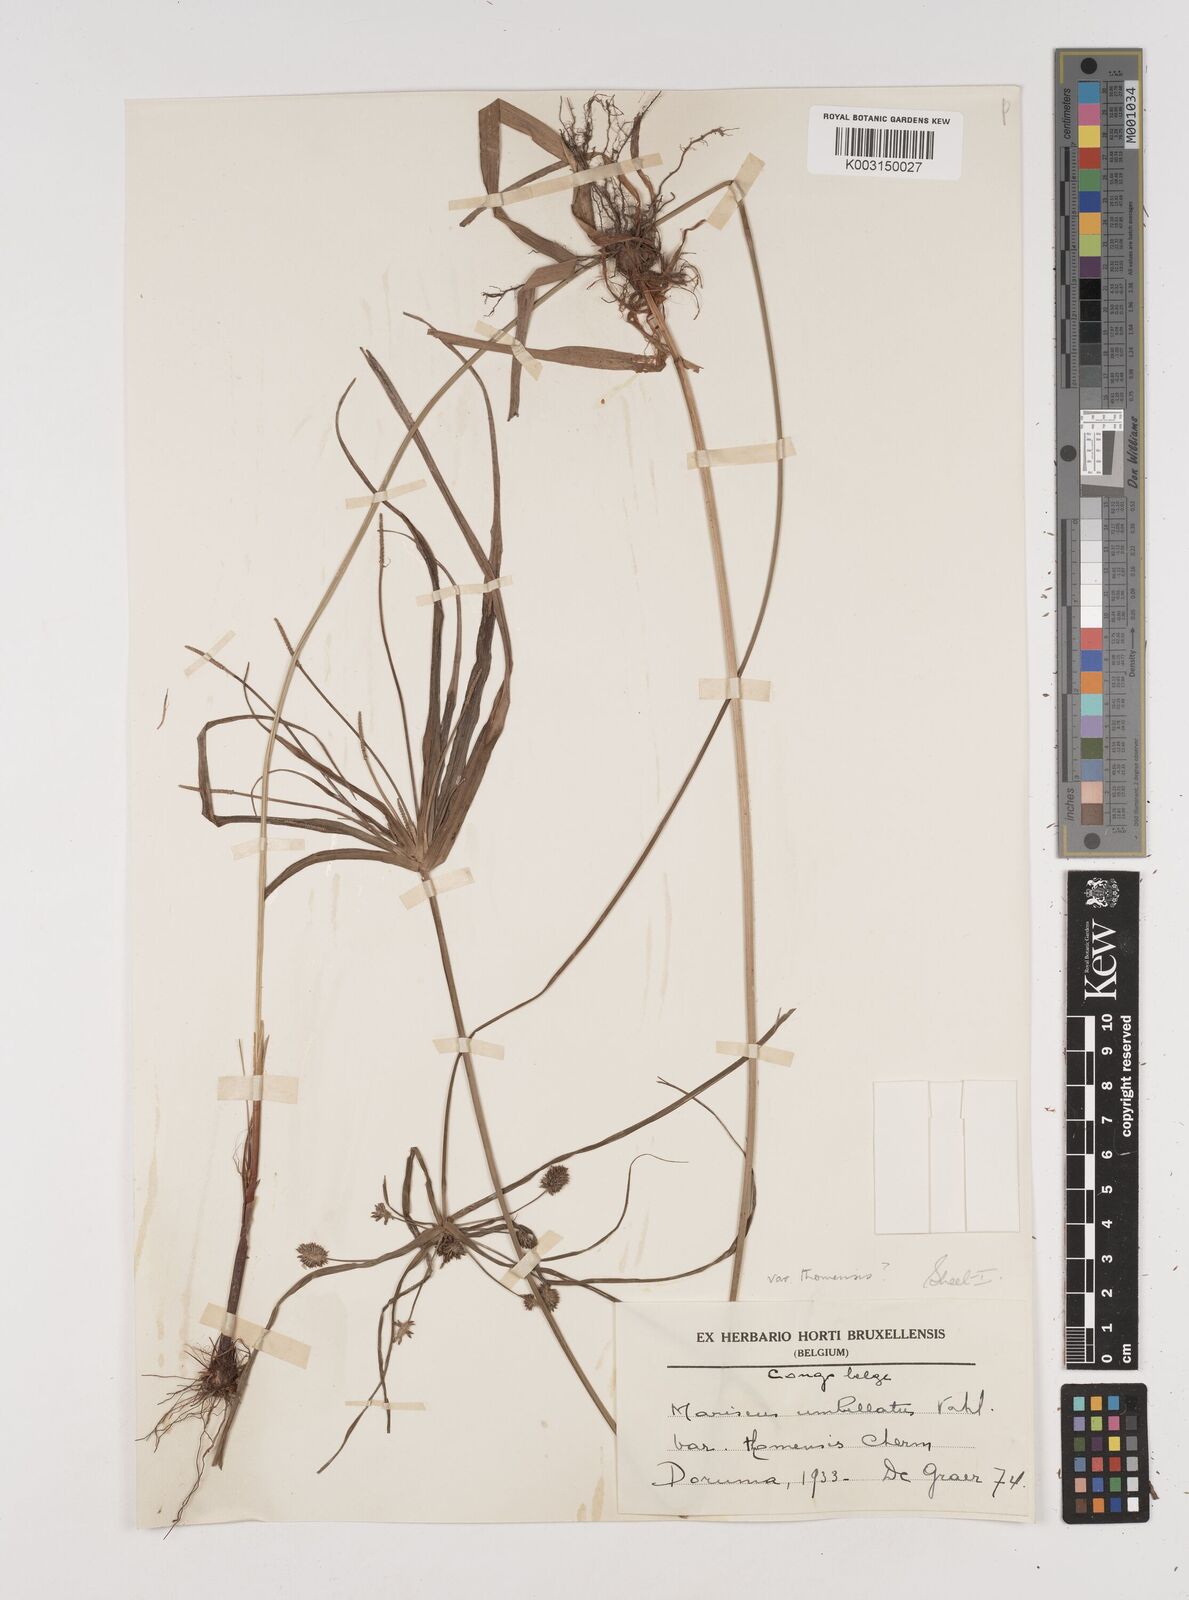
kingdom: Plantae
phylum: Tracheophyta
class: Liliopsida
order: Poales
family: Cyperaceae
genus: Cyperus
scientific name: Cyperus cyperoides
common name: Pacific island flat sedge
